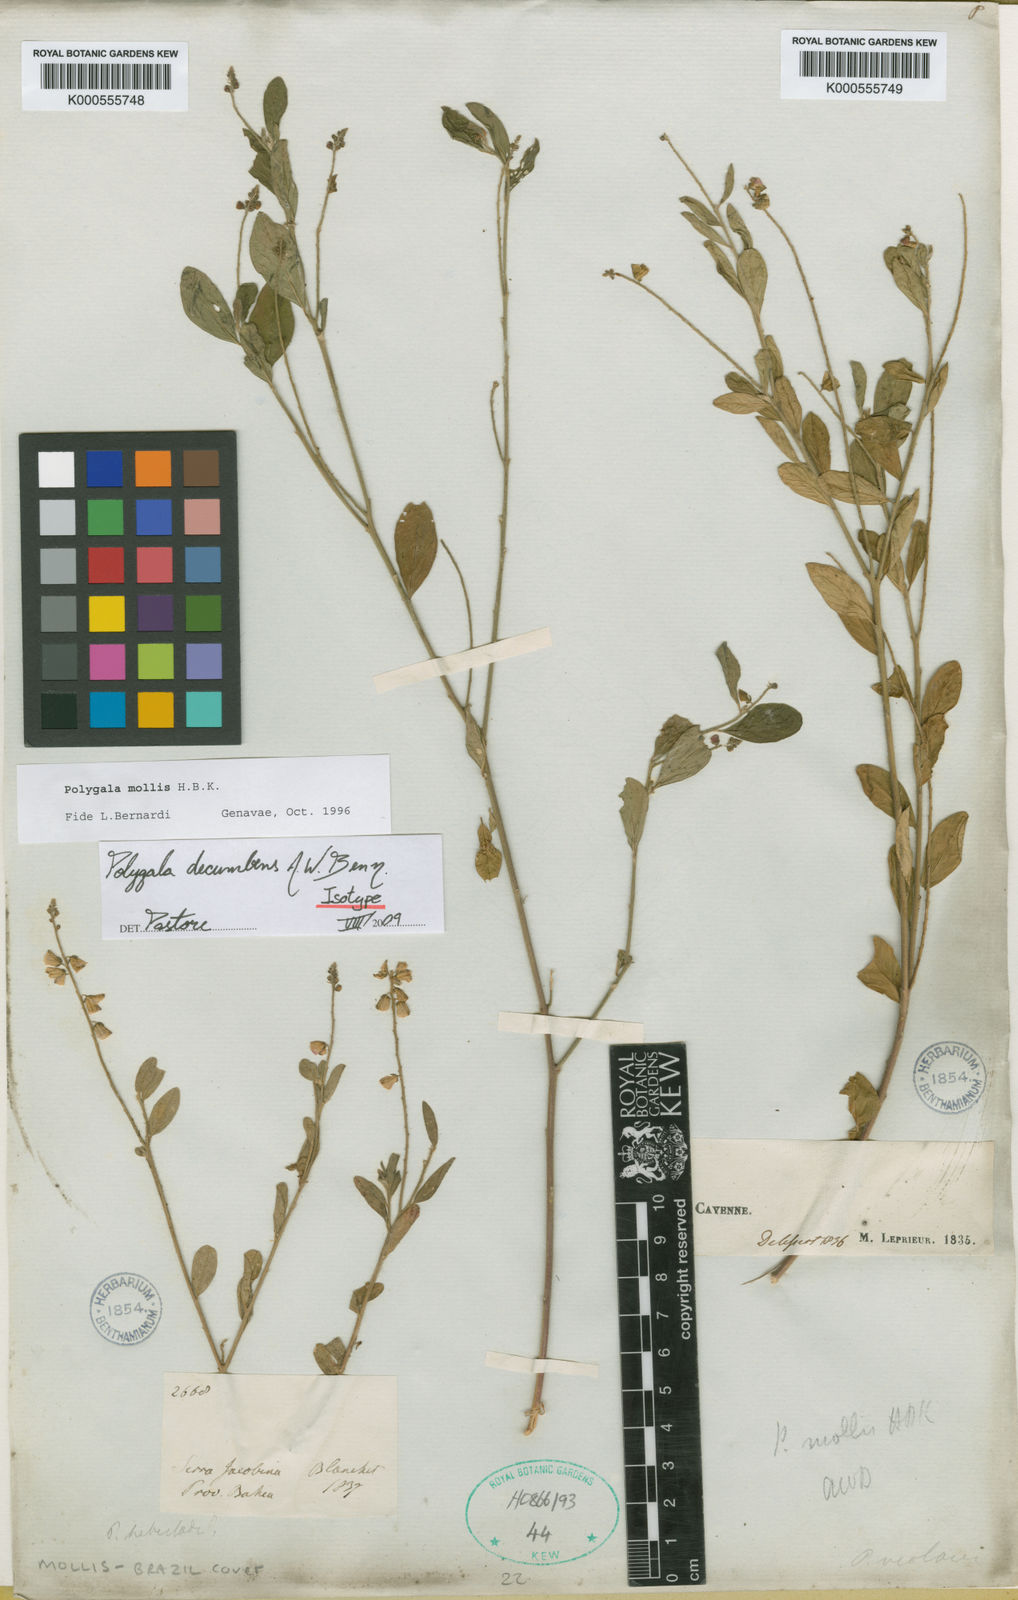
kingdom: Plantae
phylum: Tracheophyta
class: Magnoliopsida
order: Fabales
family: Polygalaceae
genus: Asemeia
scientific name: Asemeia ovata
